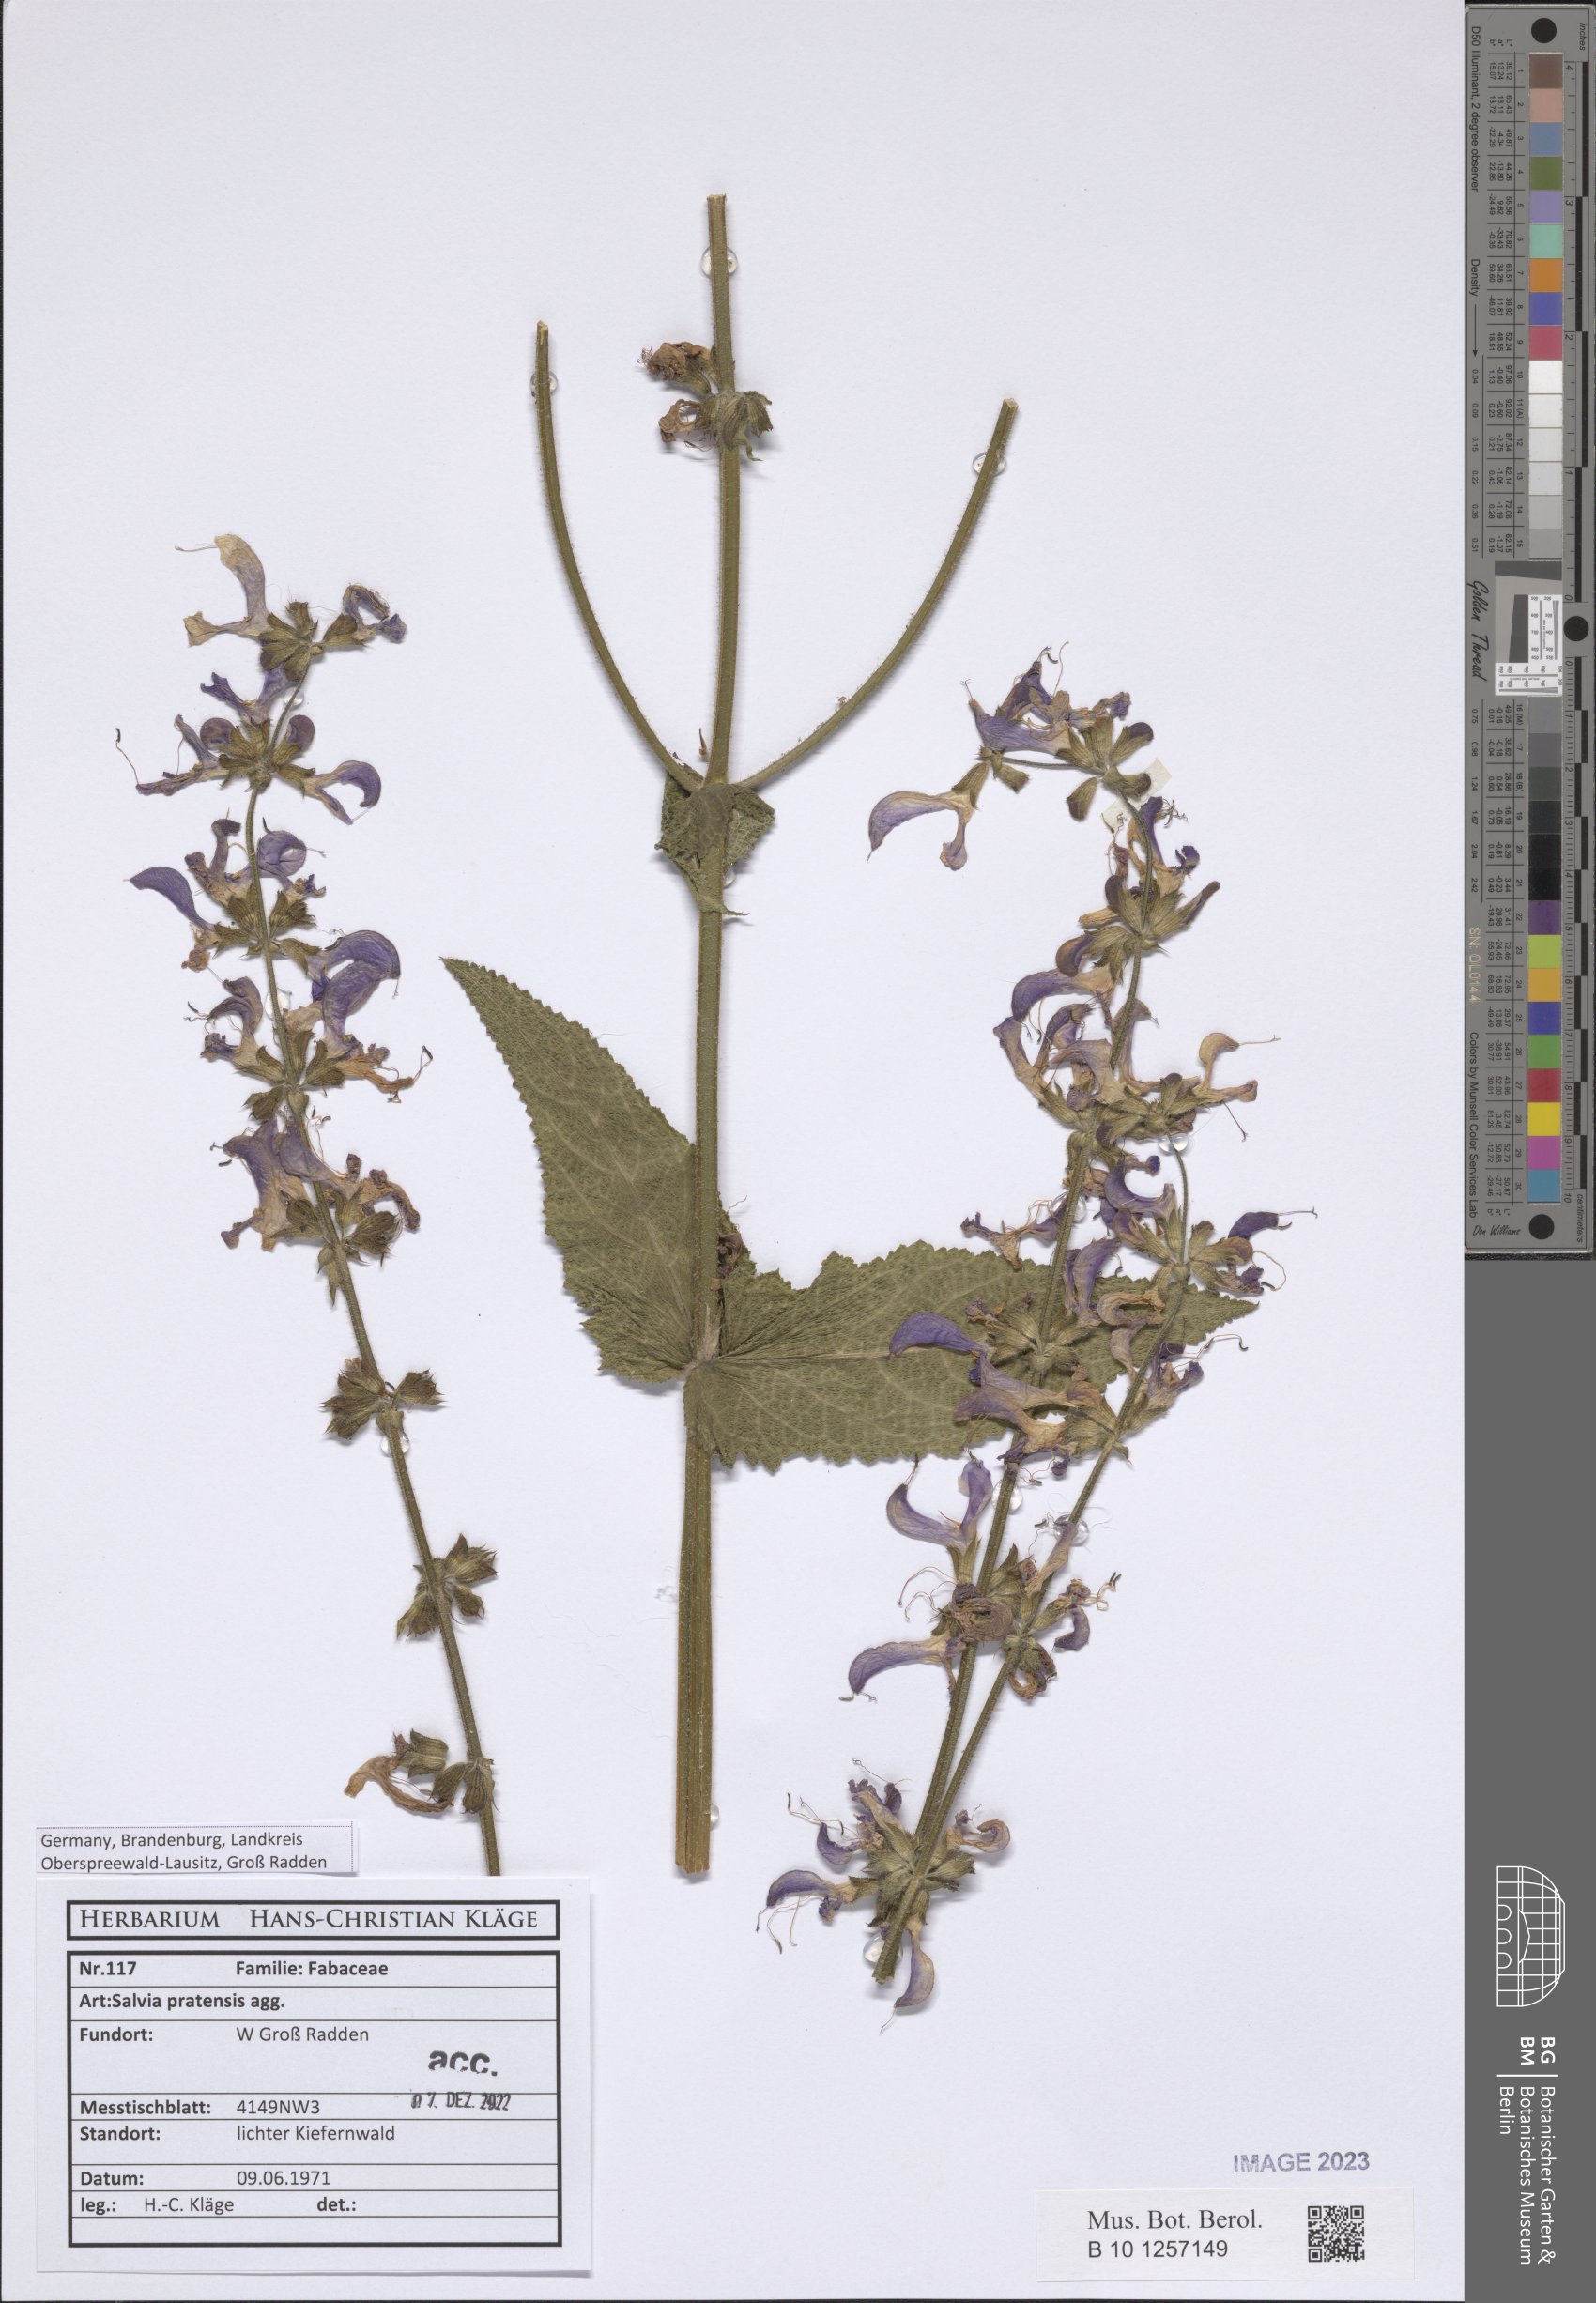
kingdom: Plantae
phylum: Tracheophyta
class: Magnoliopsida
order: Lamiales
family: Lamiaceae
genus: Salvia
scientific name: Salvia pratensis
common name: Meadow sage
